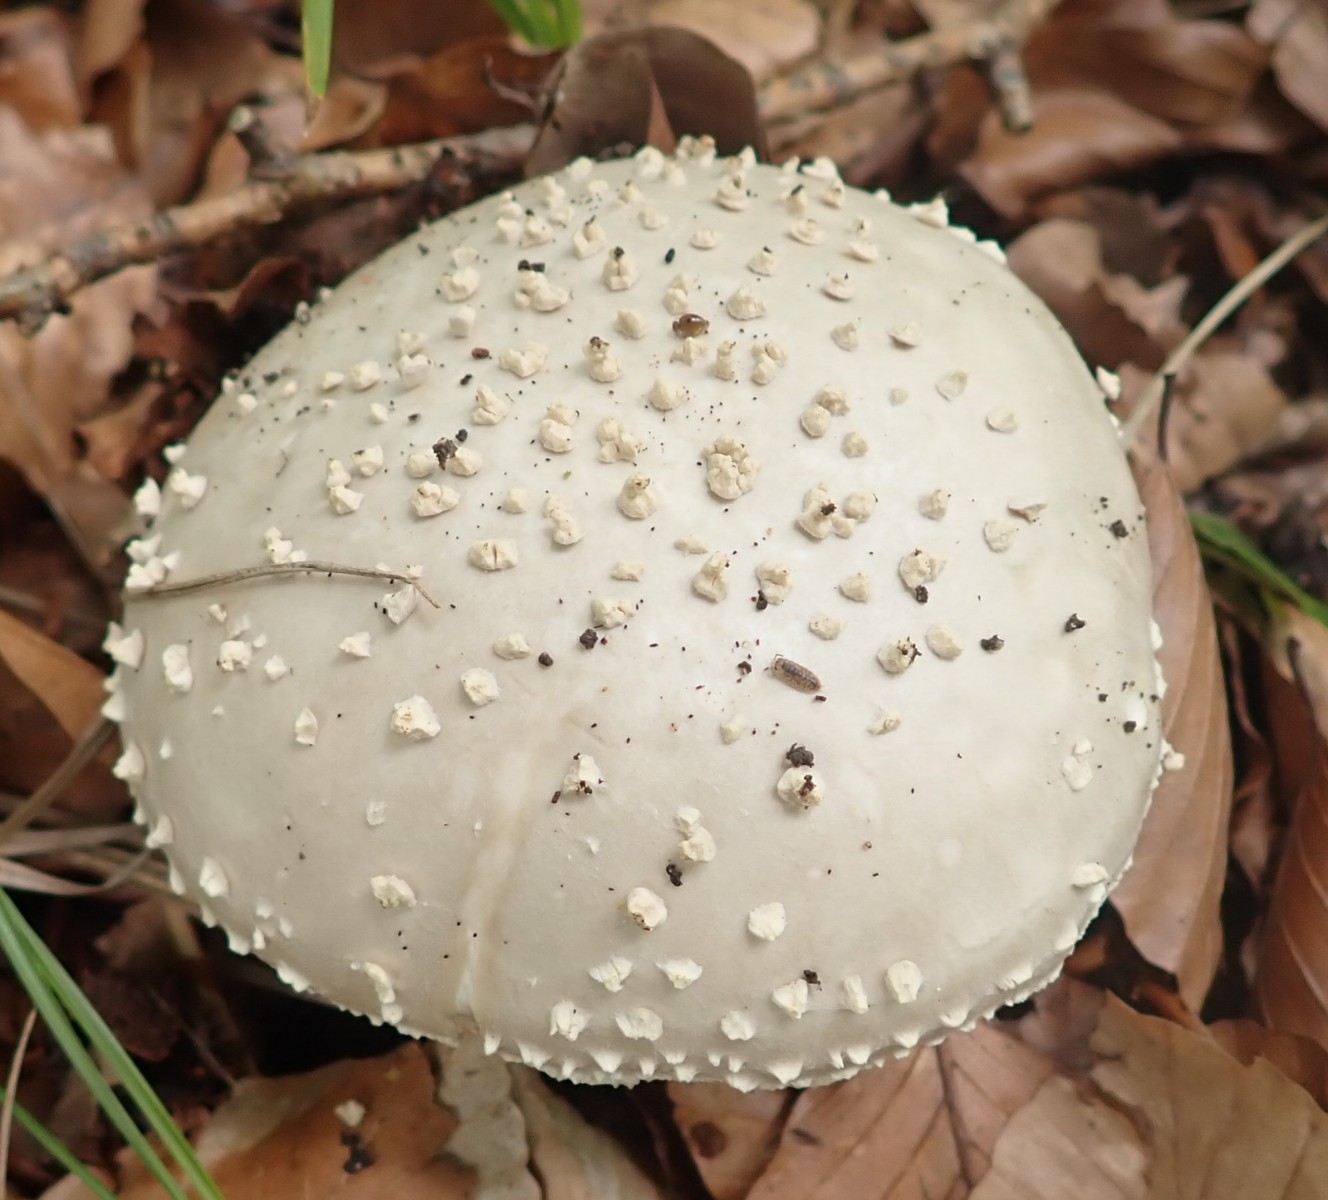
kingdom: Fungi
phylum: Basidiomycota
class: Agaricomycetes
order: Agaricales
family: Amanitaceae
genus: Aspidella
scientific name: Aspidella solitaria
